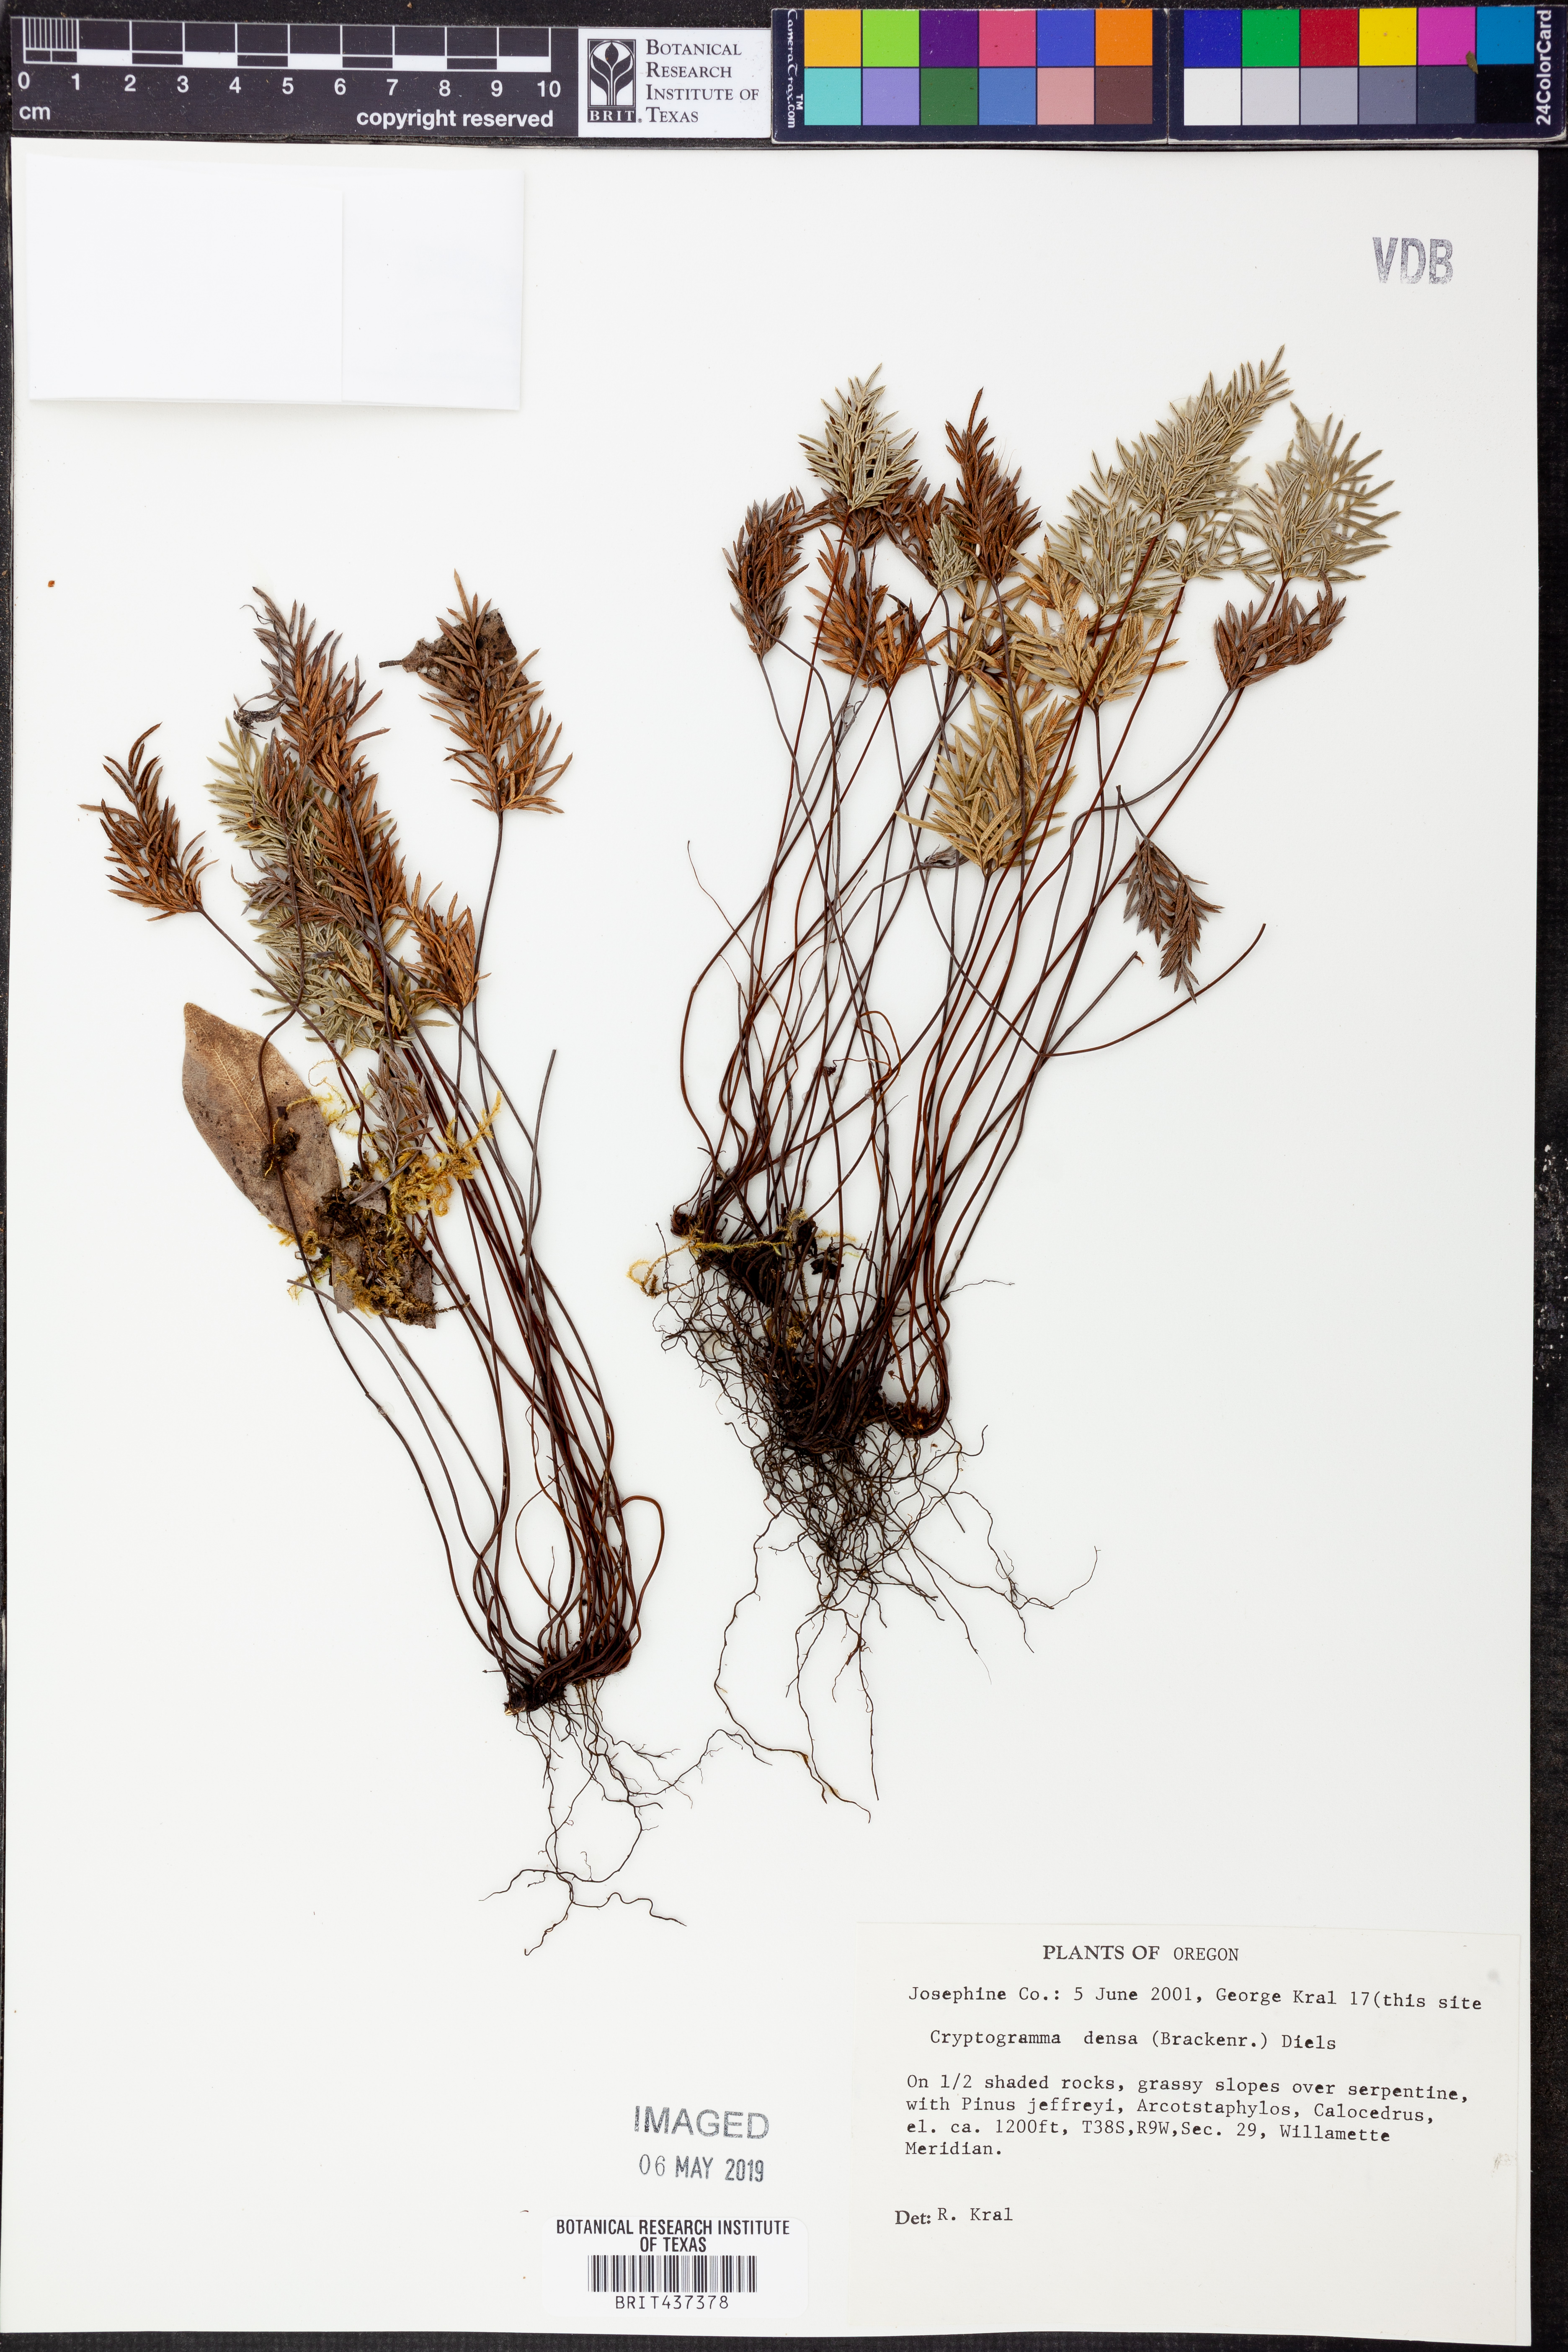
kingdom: Plantae
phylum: Tracheophyta
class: Polypodiopsida
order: Polypodiales
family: Pteridaceae
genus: Aspidotis
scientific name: Aspidotis densa
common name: Indian's dream
